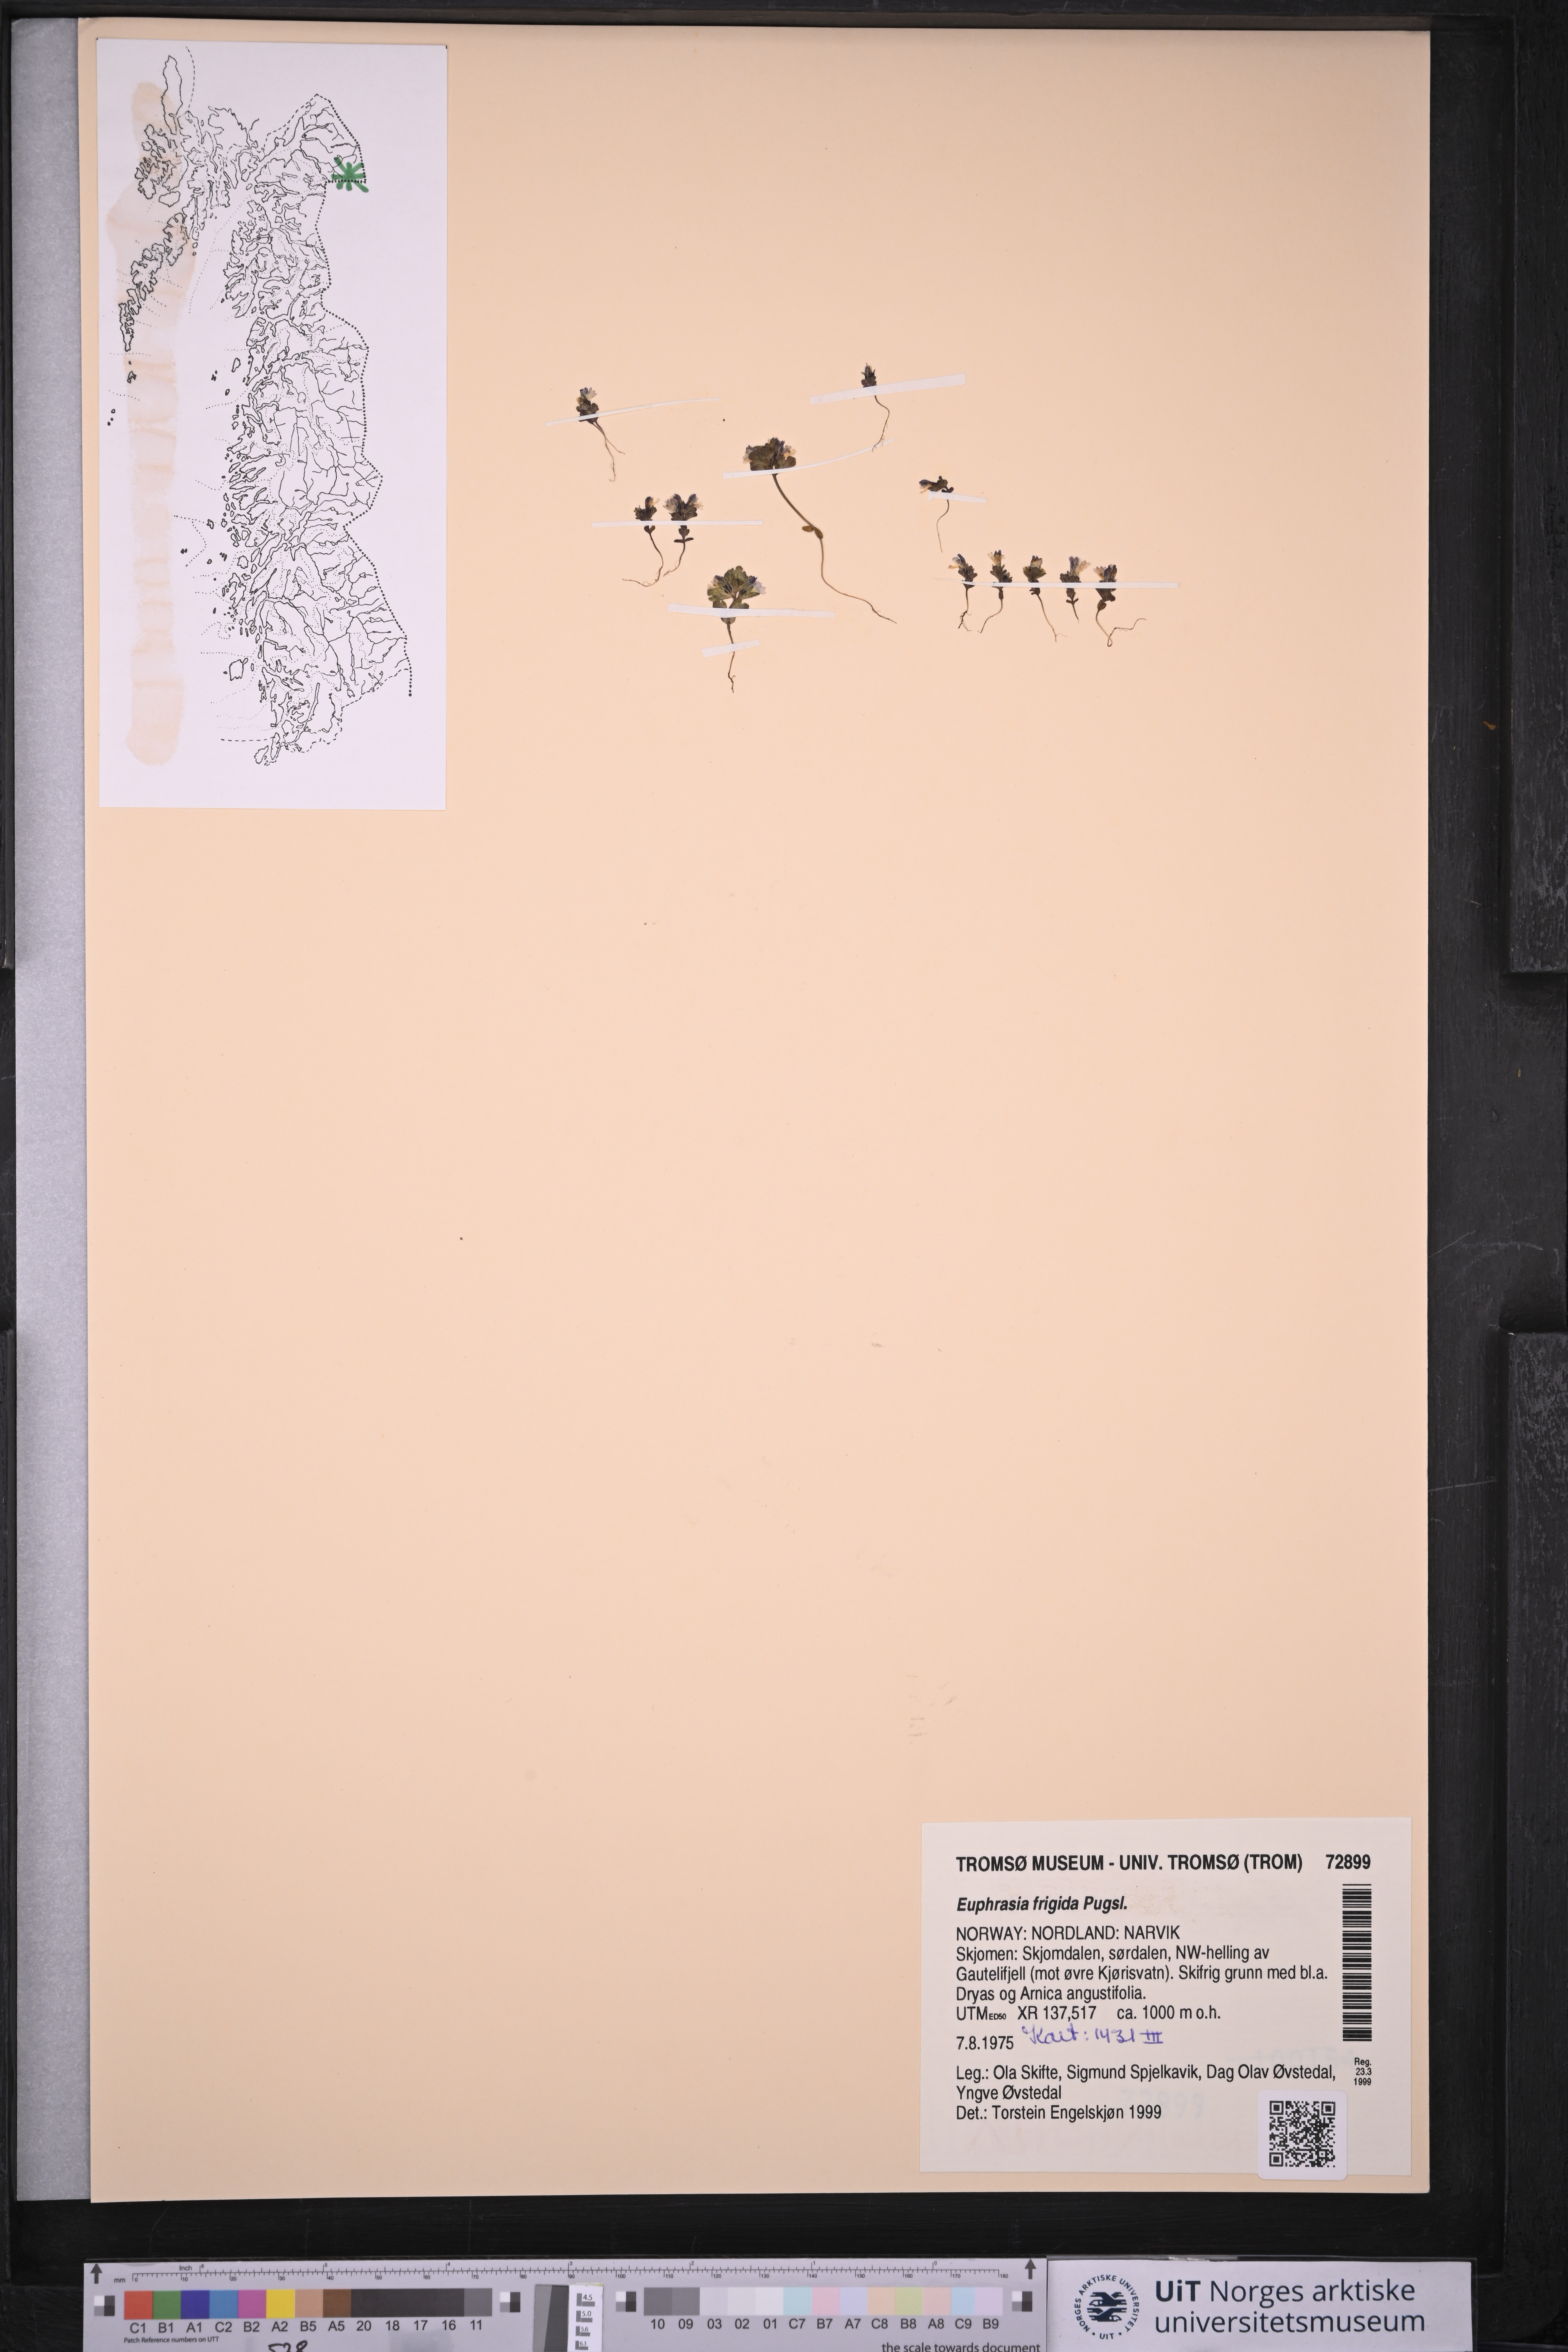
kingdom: Plantae
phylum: Tracheophyta
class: Magnoliopsida
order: Lamiales
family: Orobanchaceae
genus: Euphrasia
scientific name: Euphrasia frigida
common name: An eyebright
